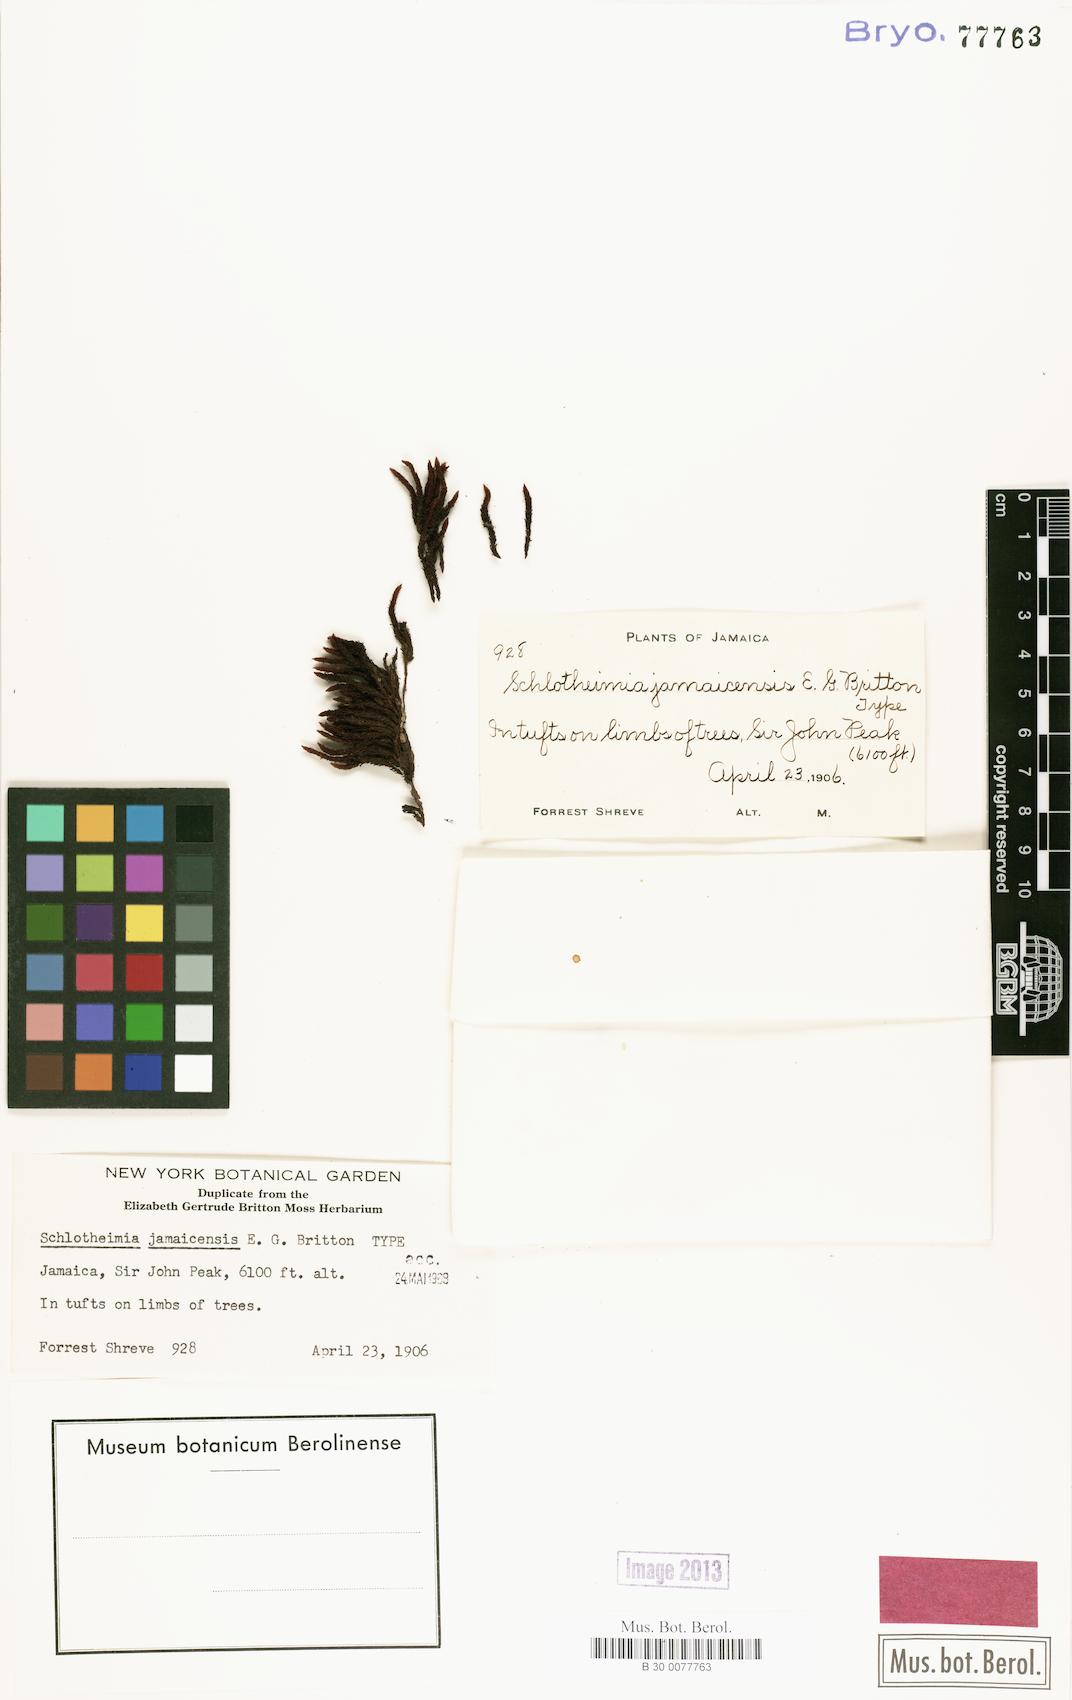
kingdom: Plantae
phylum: Bryophyta
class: Bryopsida
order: Orthotrichales
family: Orthotrichaceae
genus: Schlotheimia
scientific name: Schlotheimia
